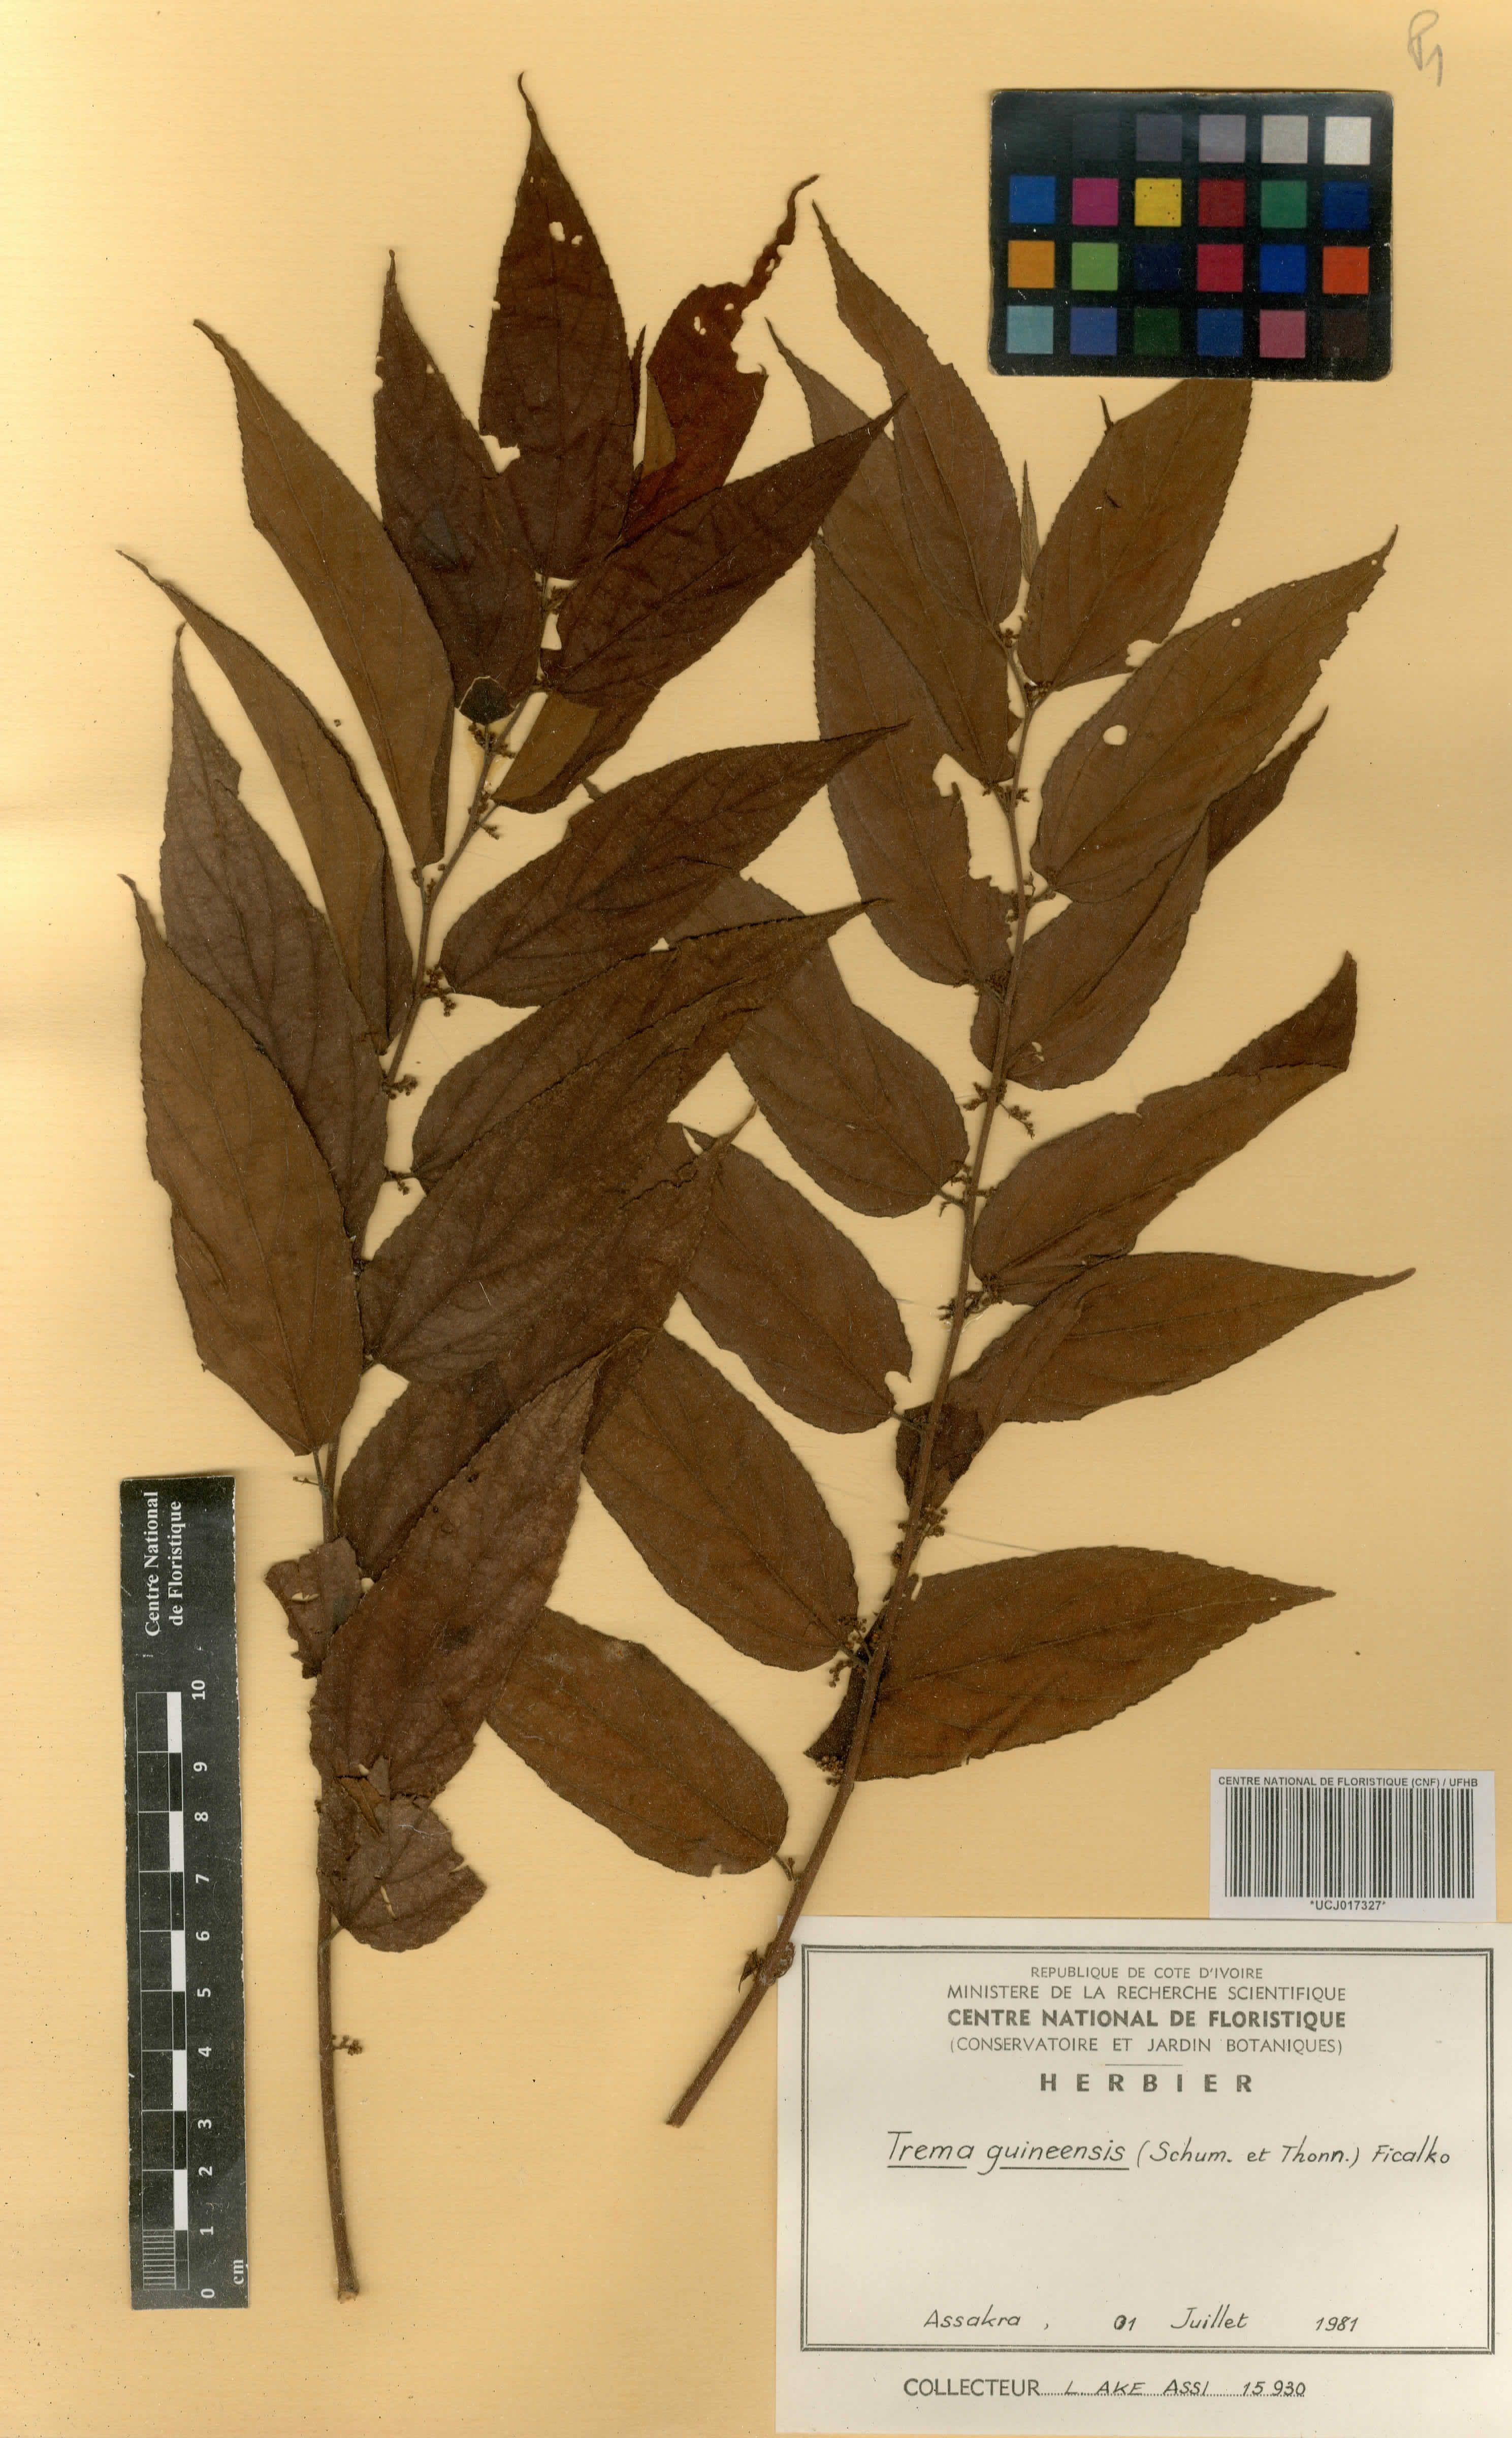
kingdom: Plantae
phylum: Tracheophyta
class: Magnoliopsida
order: Rosales
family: Cannabaceae
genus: Trema
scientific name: Trema orientale
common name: Indian charcoal tree
